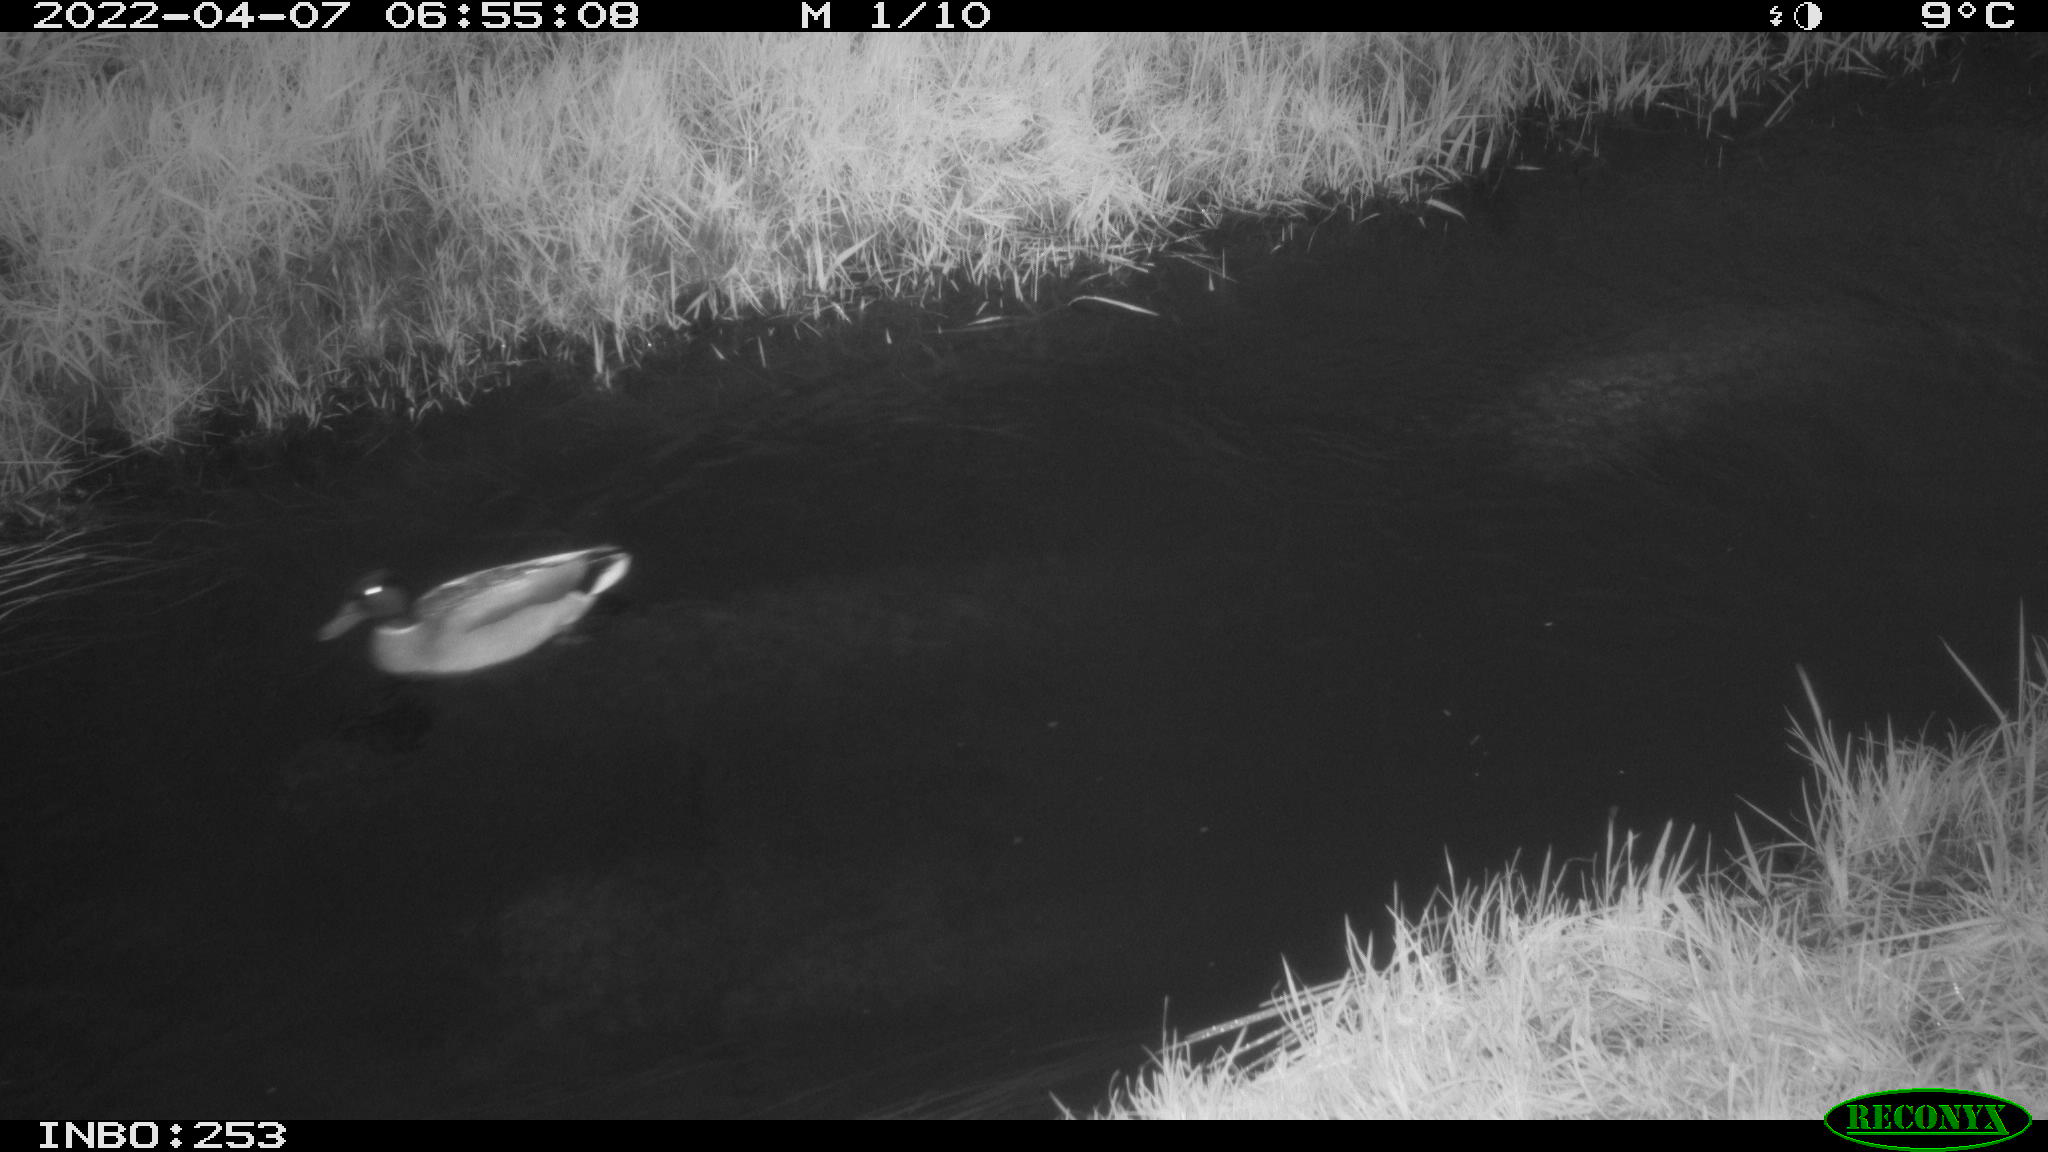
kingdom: Animalia
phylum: Chordata
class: Aves
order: Anseriformes
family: Anatidae
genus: Anas
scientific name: Anas platyrhynchos
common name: Mallard
